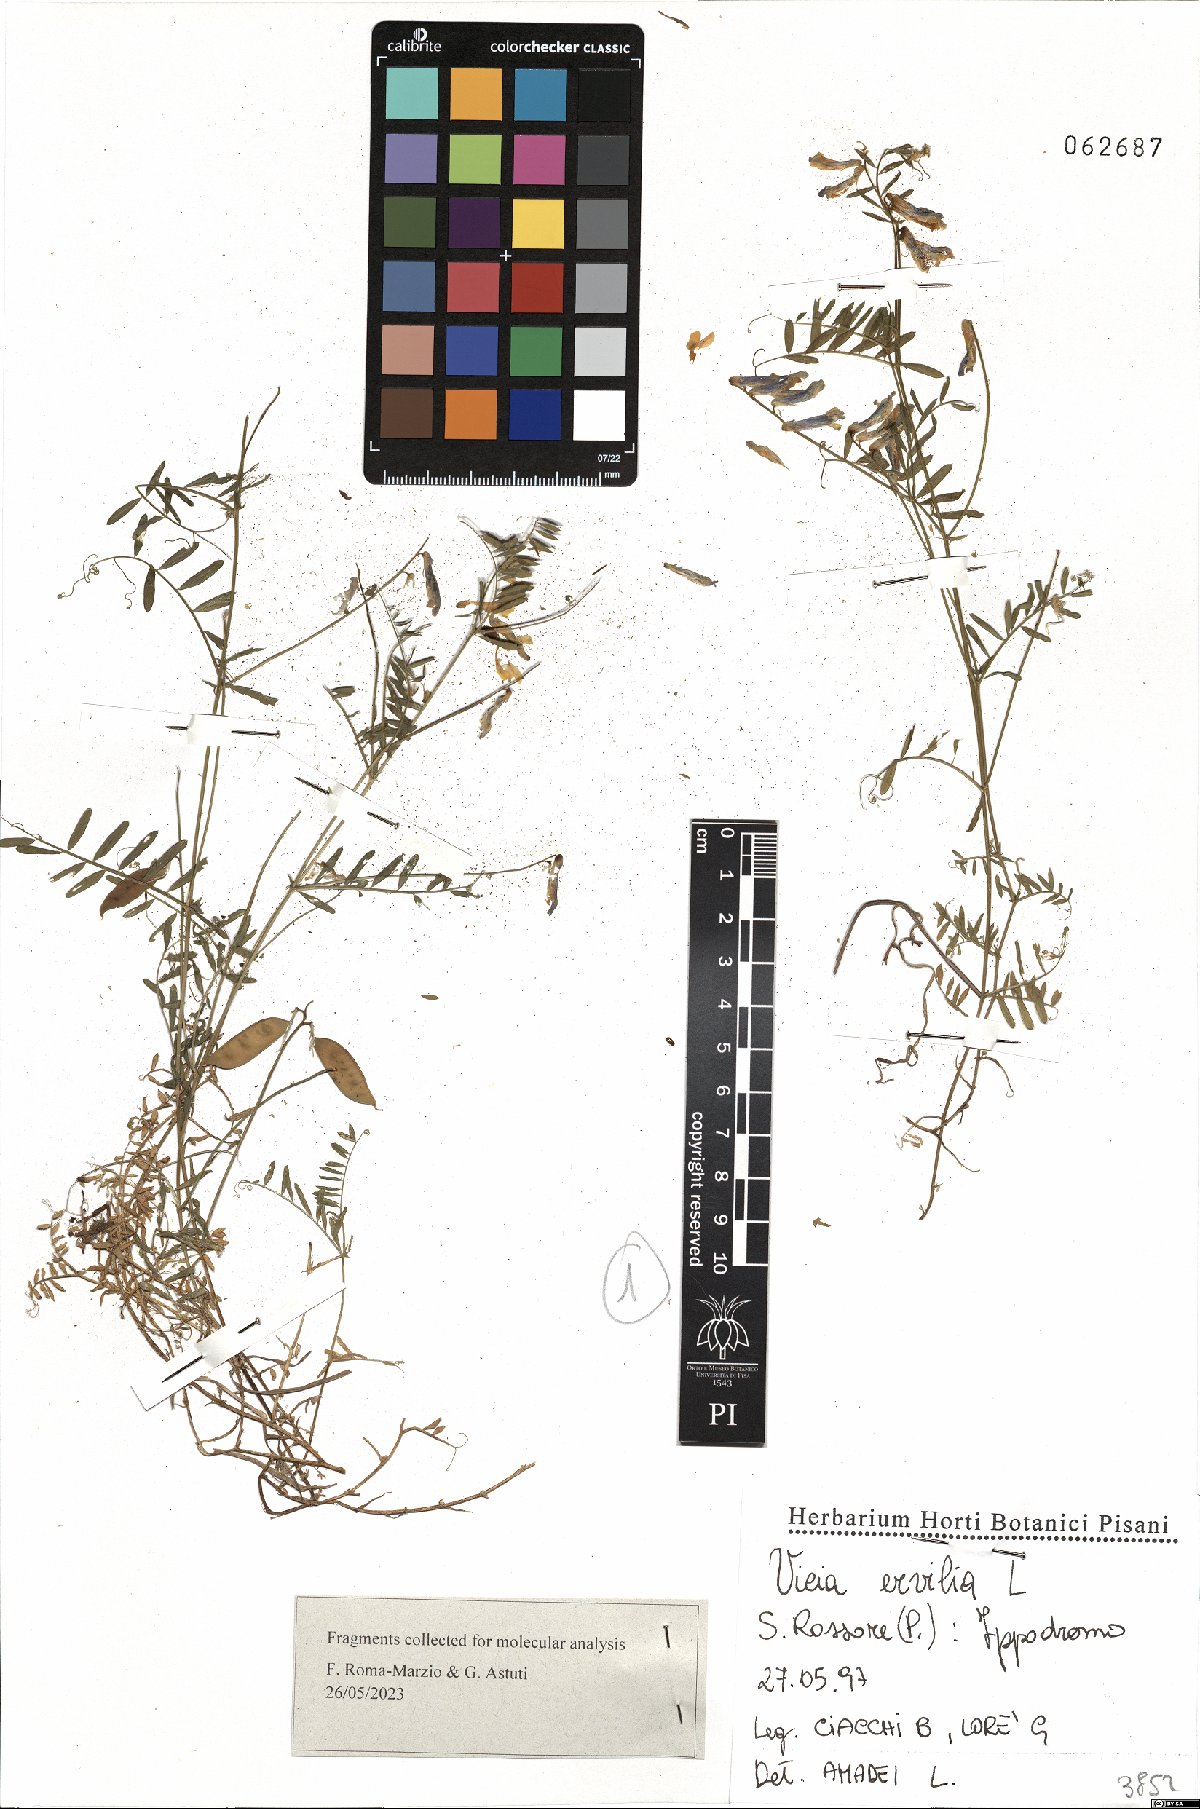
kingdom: Plantae
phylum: Tracheophyta
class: Magnoliopsida
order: Fabales
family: Fabaceae
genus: Vicia
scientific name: Vicia ervilia
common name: Bitter vetch
